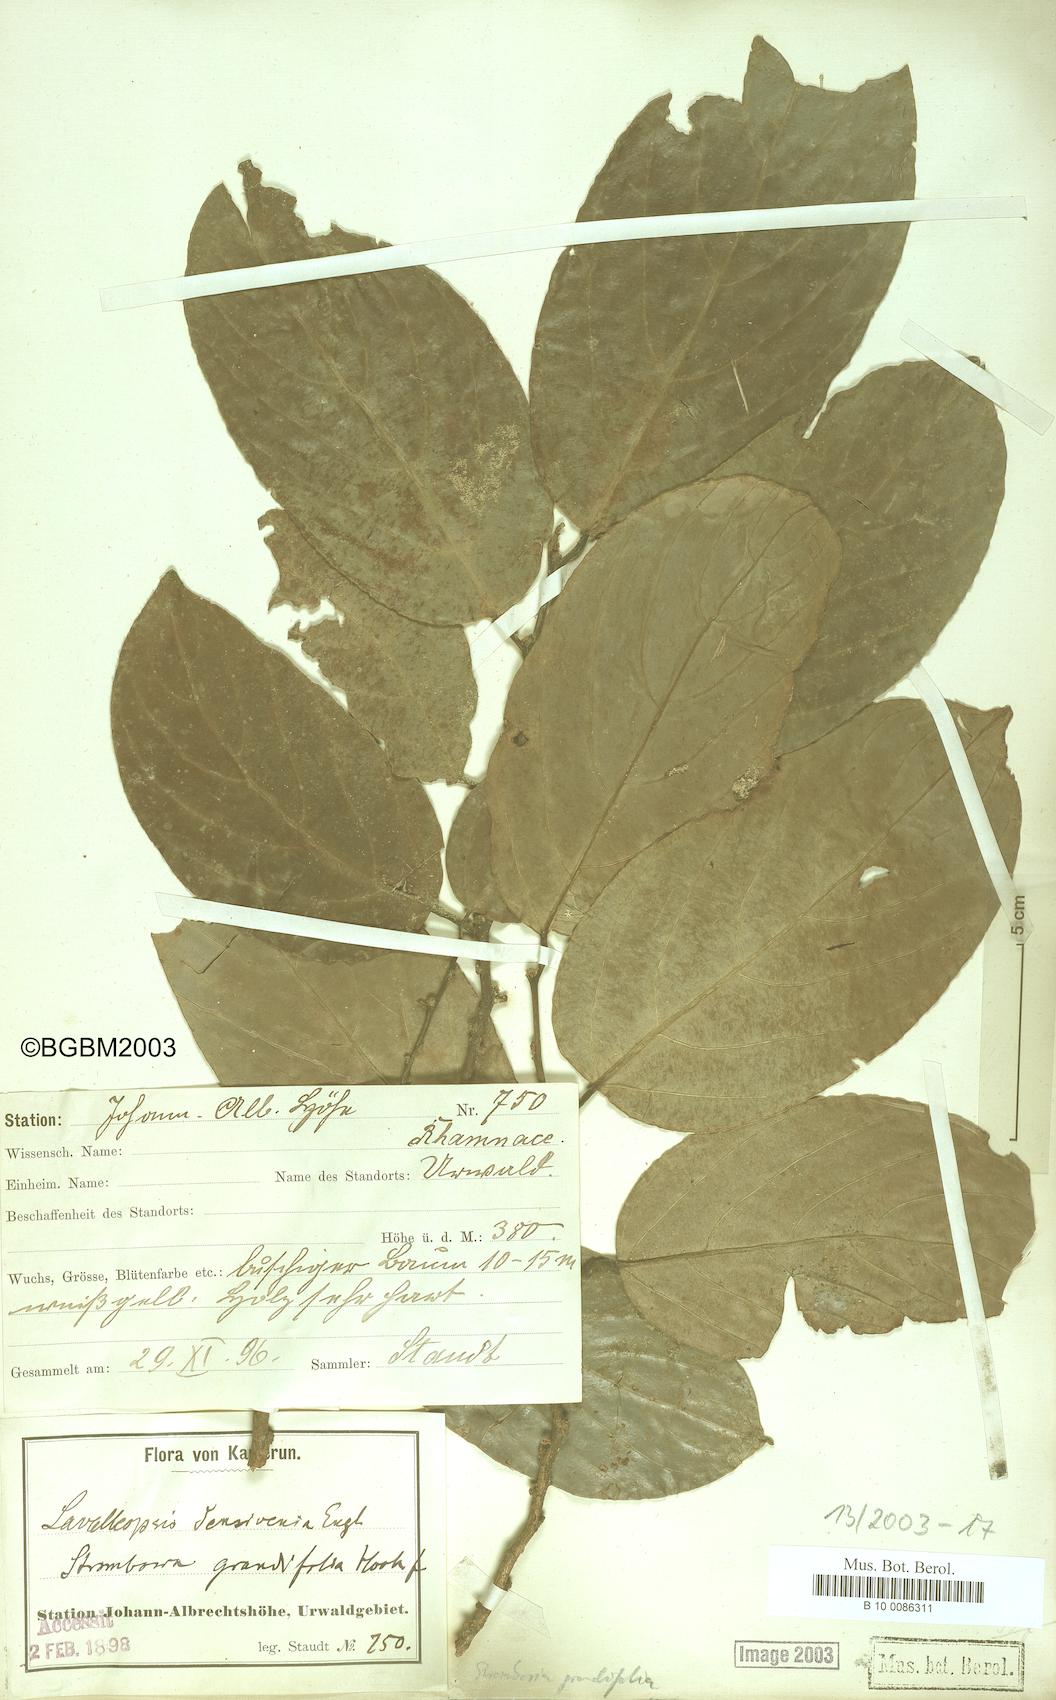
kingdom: Plantae
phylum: Tracheophyta
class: Magnoliopsida
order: Santalales
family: Strombosiaceae
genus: Strombosia
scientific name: Strombosia grandifolia
